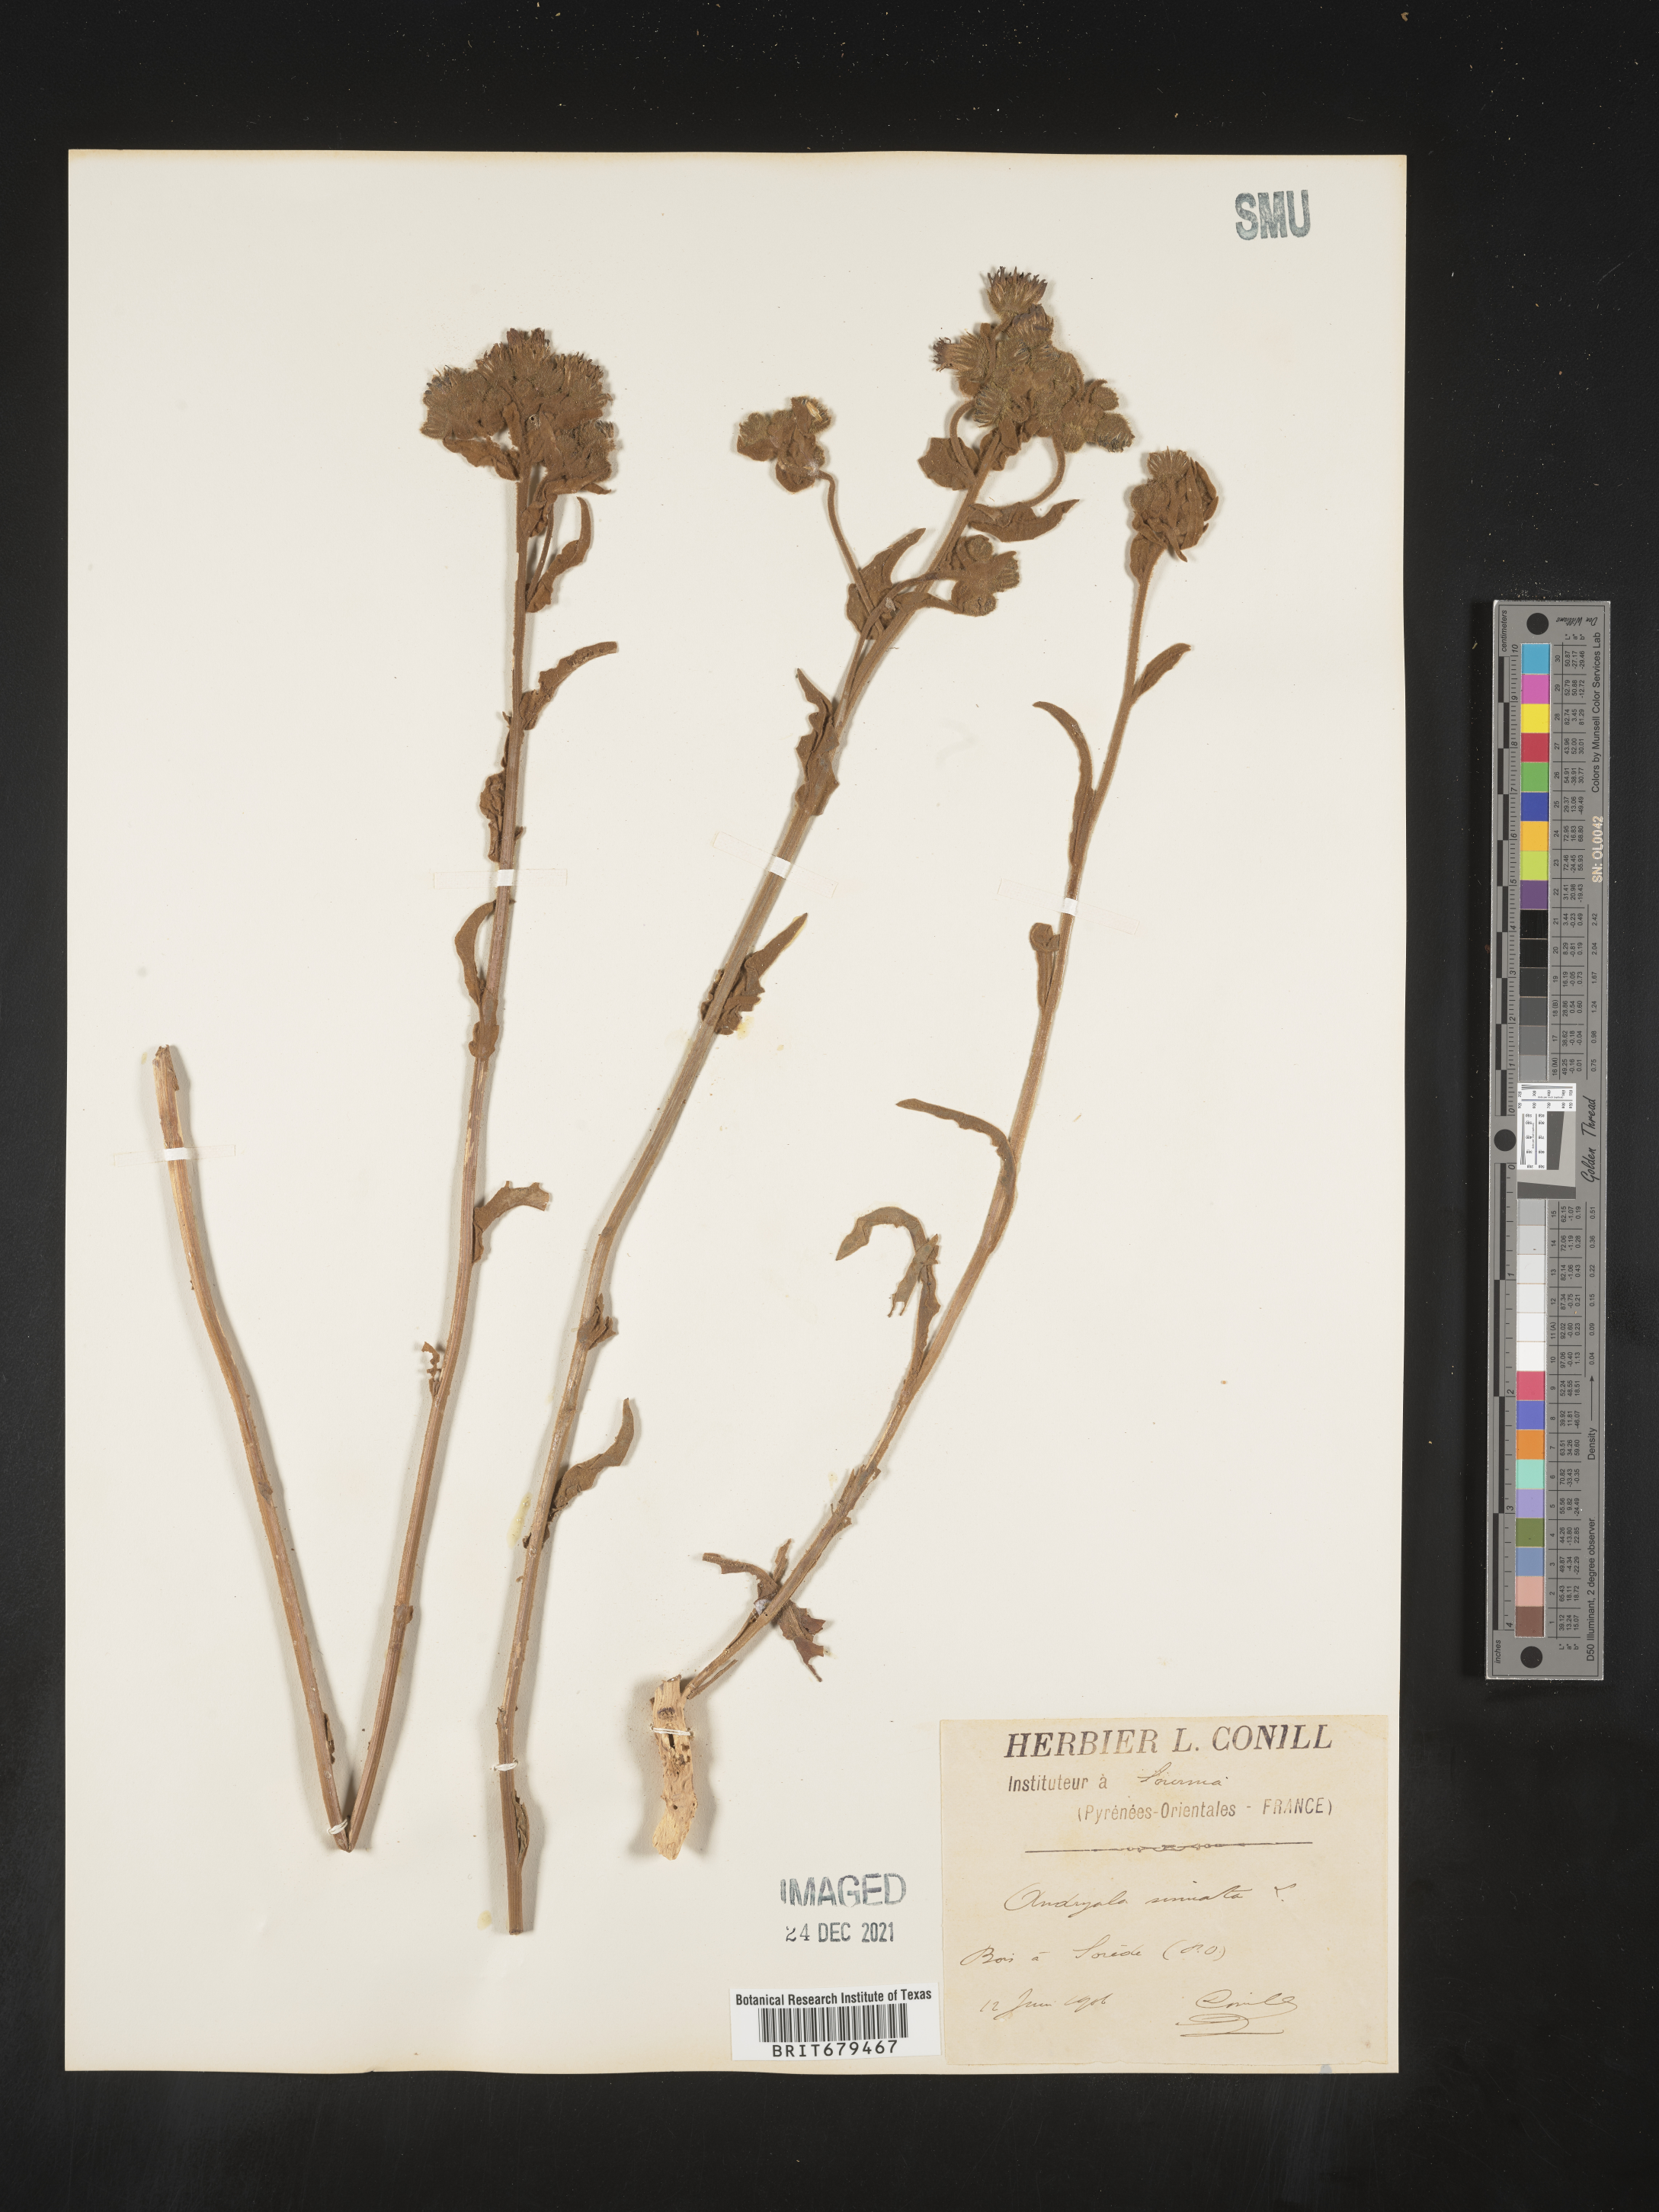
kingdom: Plantae
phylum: Tracheophyta
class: Magnoliopsida
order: Asterales
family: Asteraceae
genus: Andryala
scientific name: Andryala
